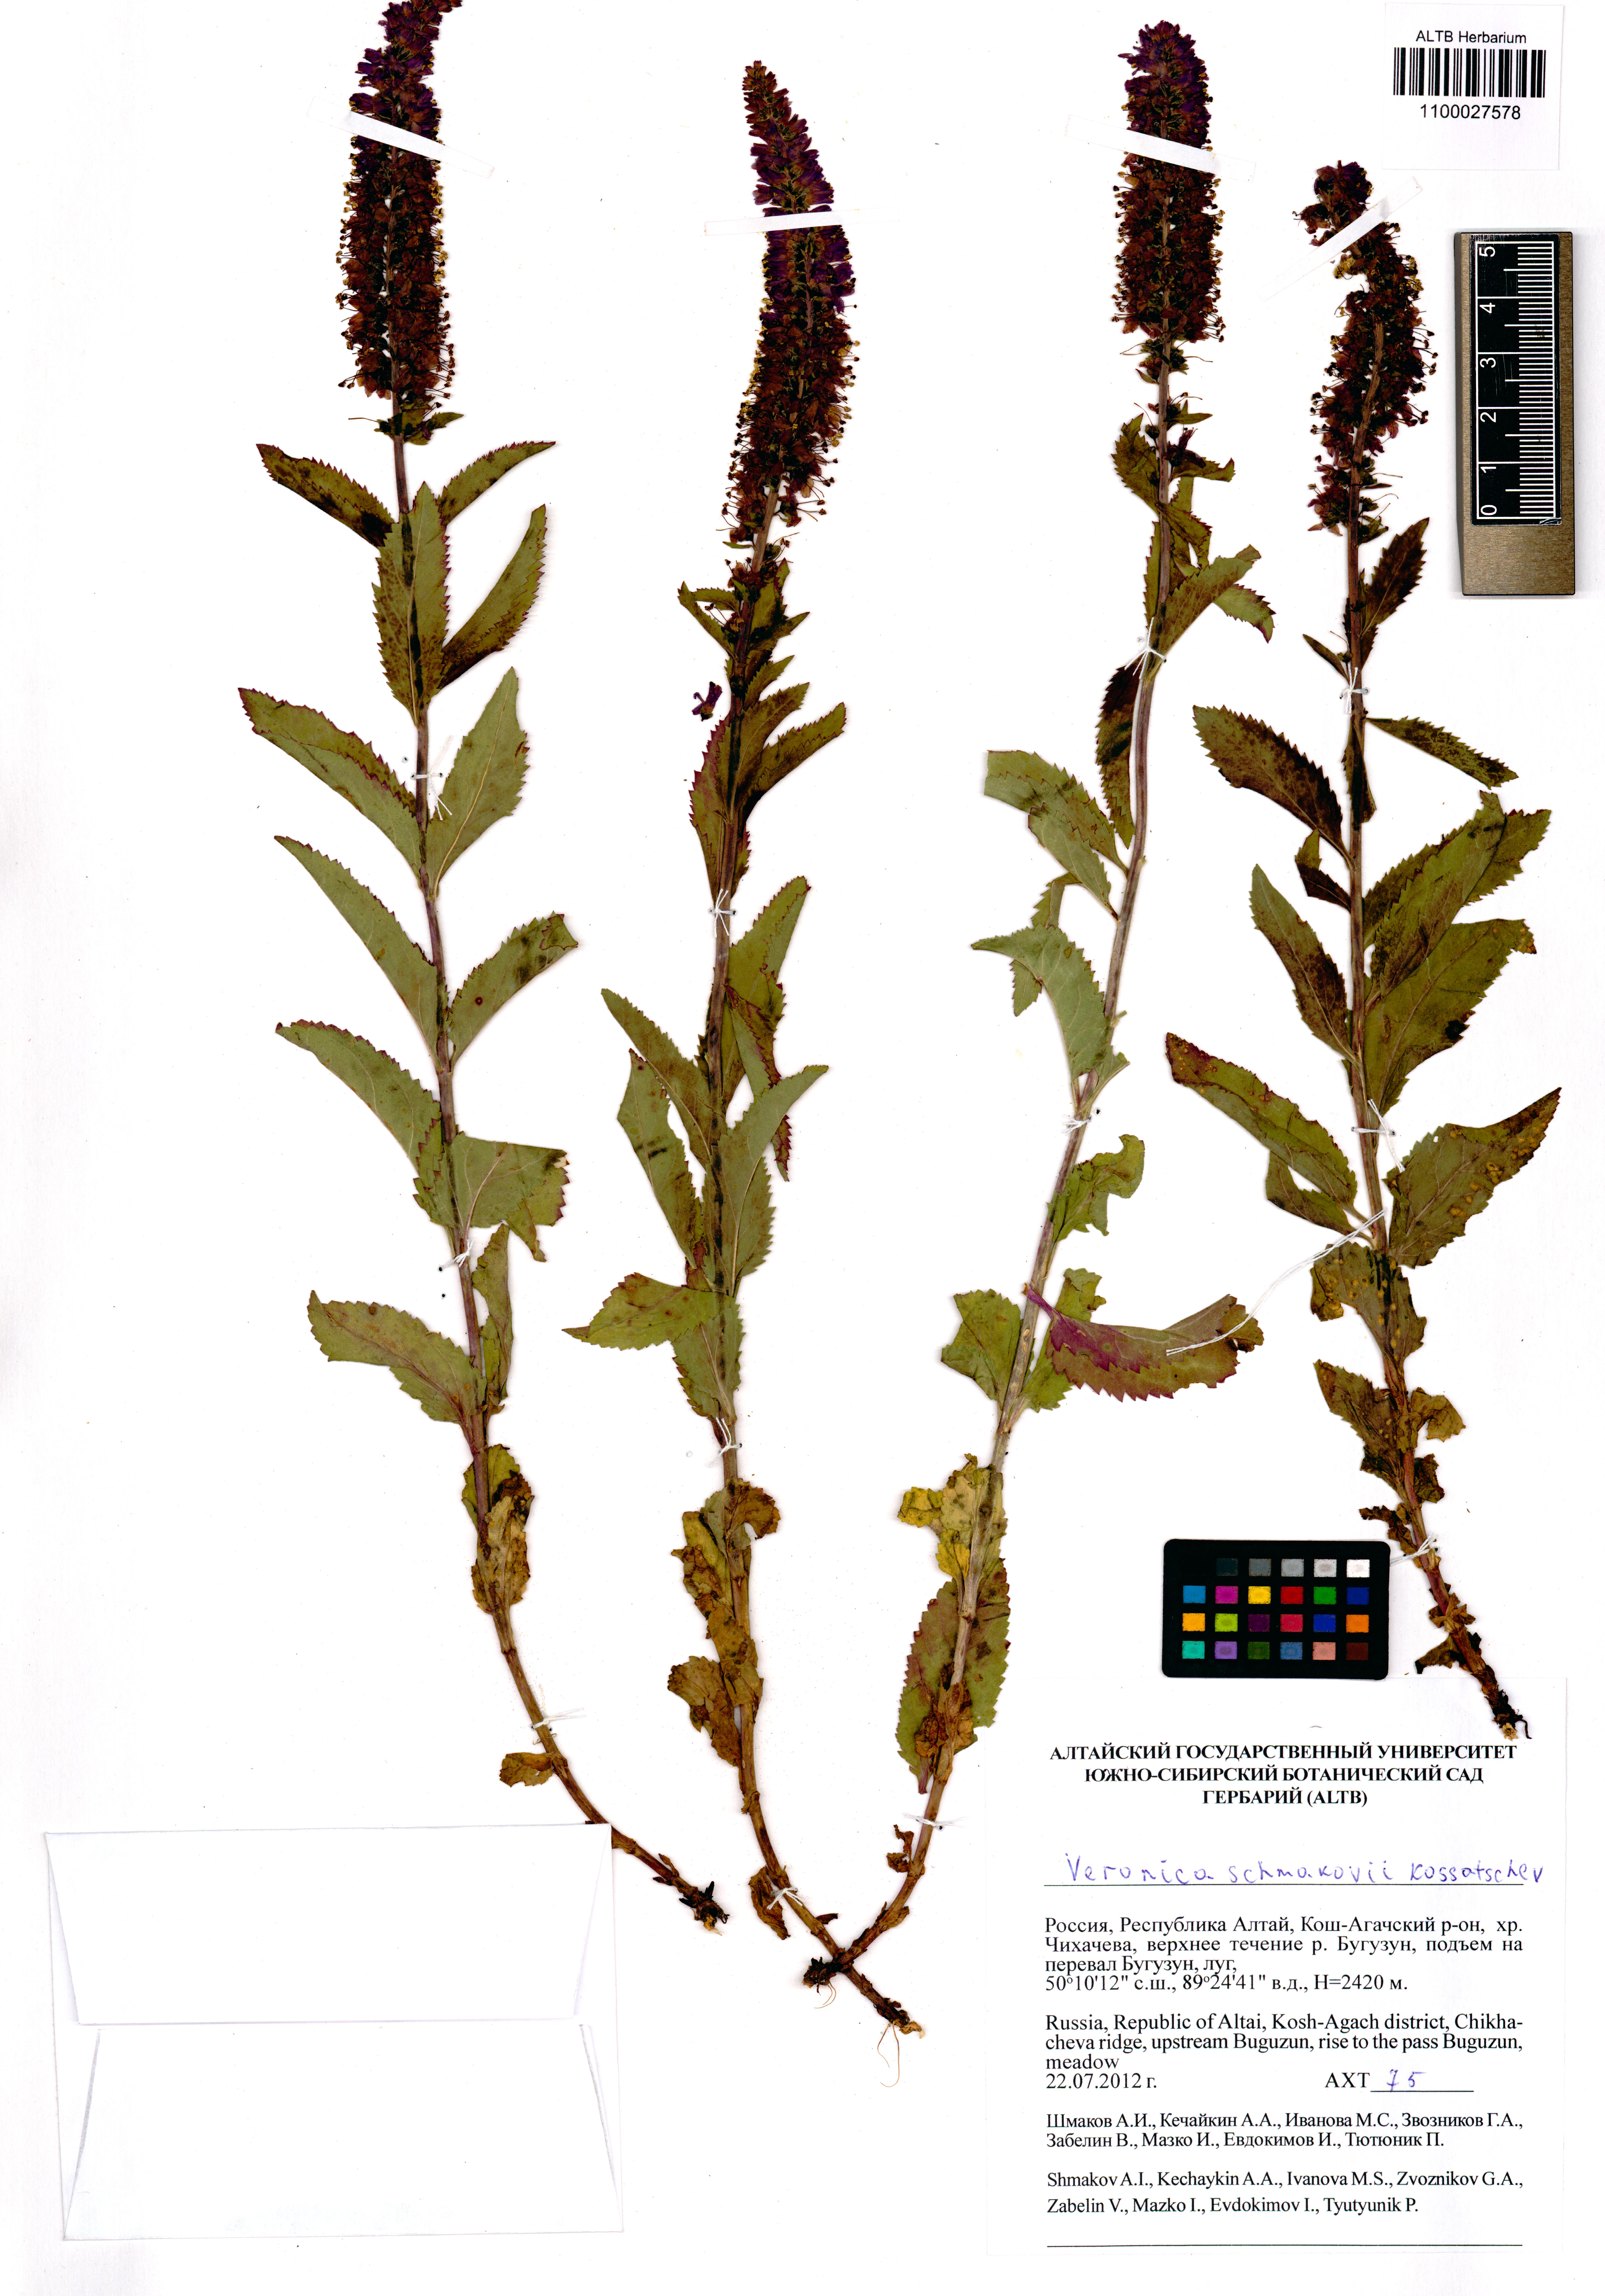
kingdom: Plantae
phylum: Tracheophyta
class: Magnoliopsida
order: Lamiales
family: Plantaginaceae
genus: Veronica
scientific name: Veronica schmakovii
